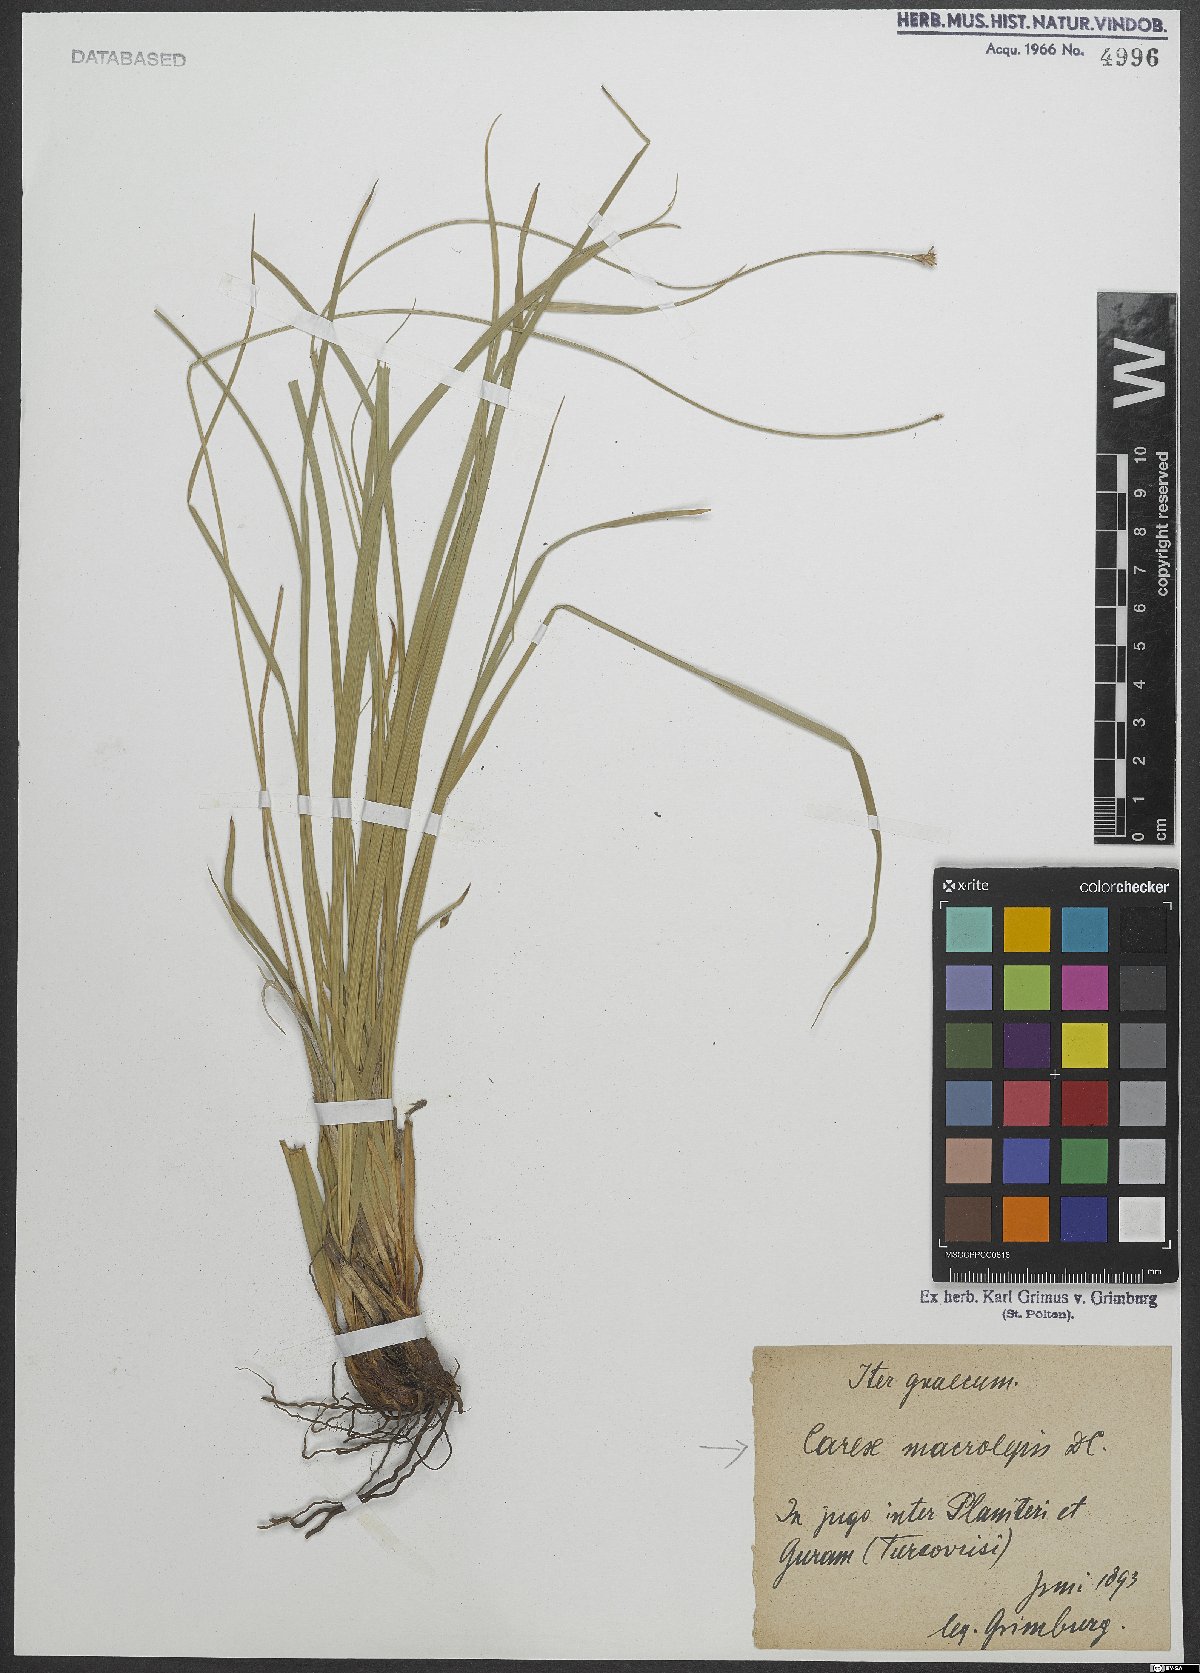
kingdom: Plantae
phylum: Tracheophyta
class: Liliopsida
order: Poales
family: Cyperaceae
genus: Carex
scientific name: Carex macrolepis
